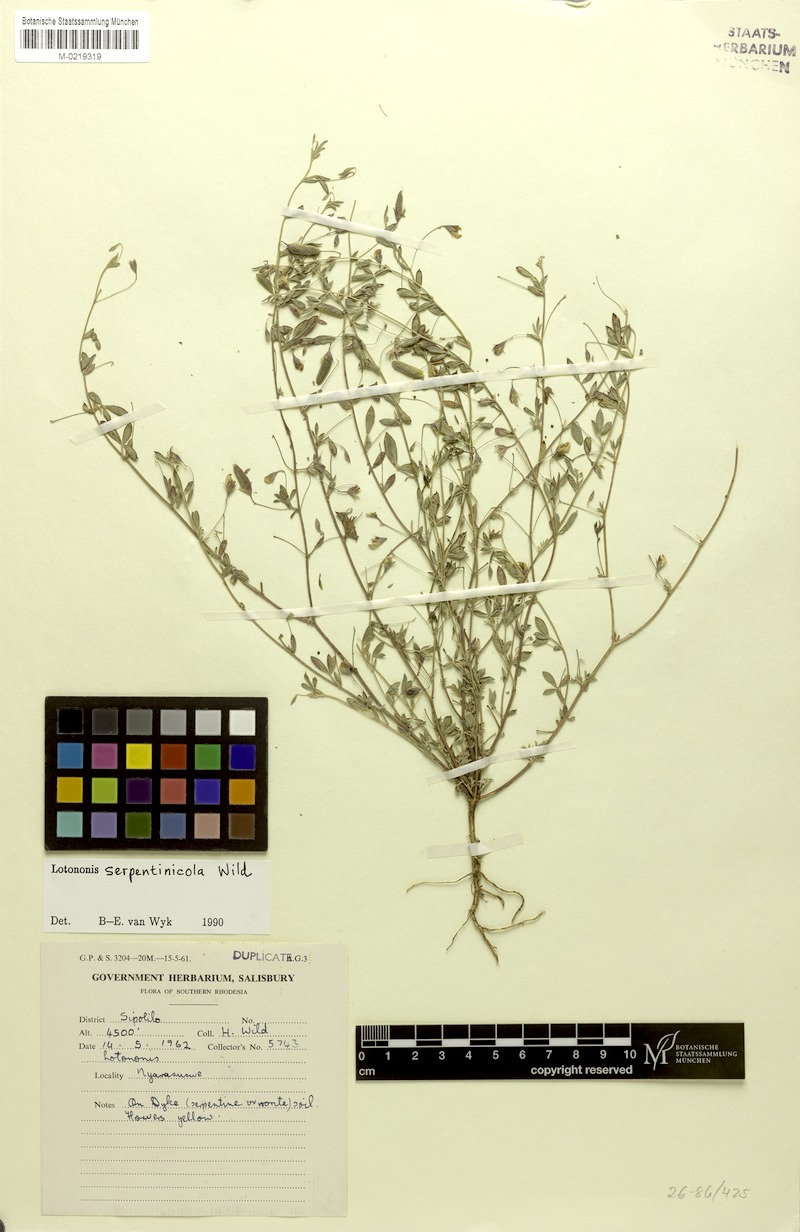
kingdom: Plantae
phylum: Tracheophyta
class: Magnoliopsida
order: Fabales
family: Fabaceae
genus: Lotononis
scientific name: Lotononis serpentinicola
